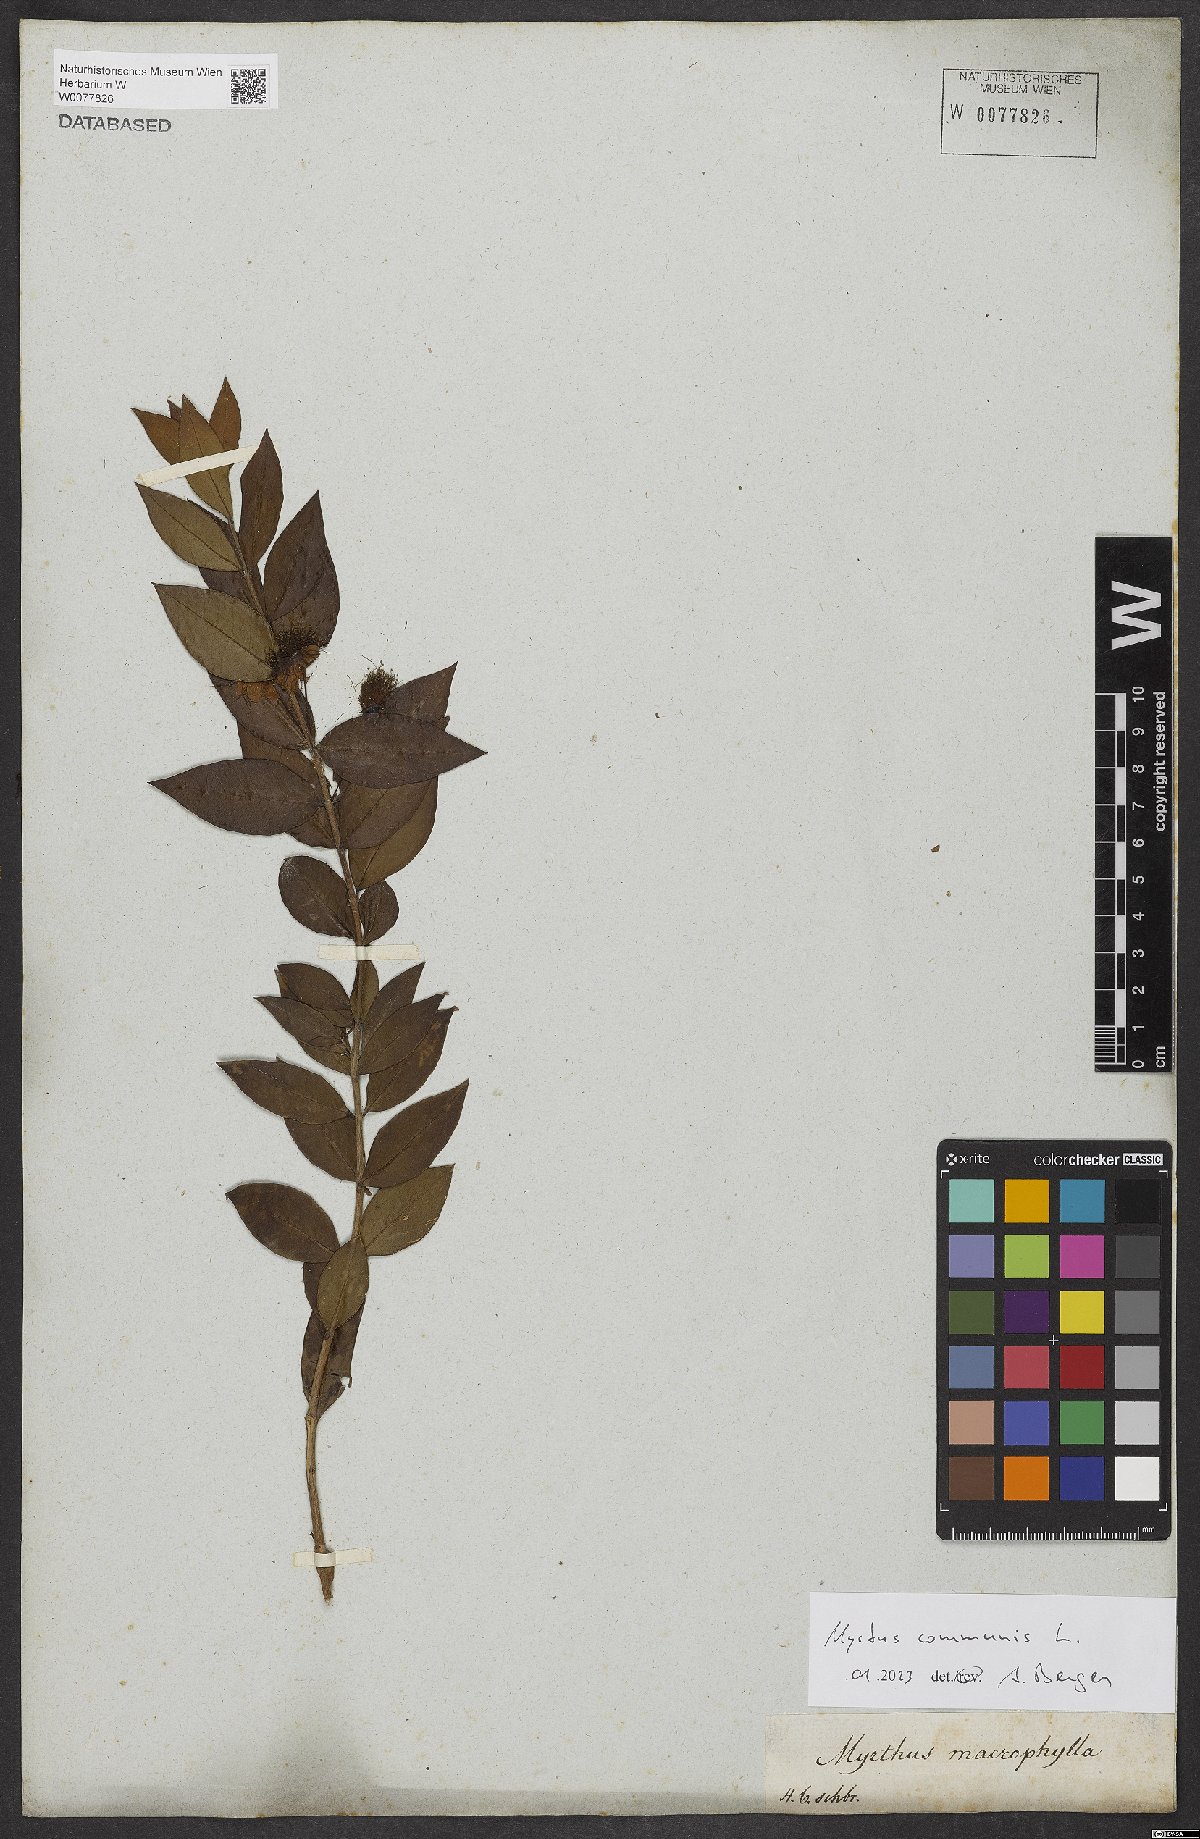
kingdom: Plantae
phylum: Tracheophyta
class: Magnoliopsida
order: Myrtales
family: Myrtaceae
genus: Myrtus
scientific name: Myrtus communis
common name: Myrtle
